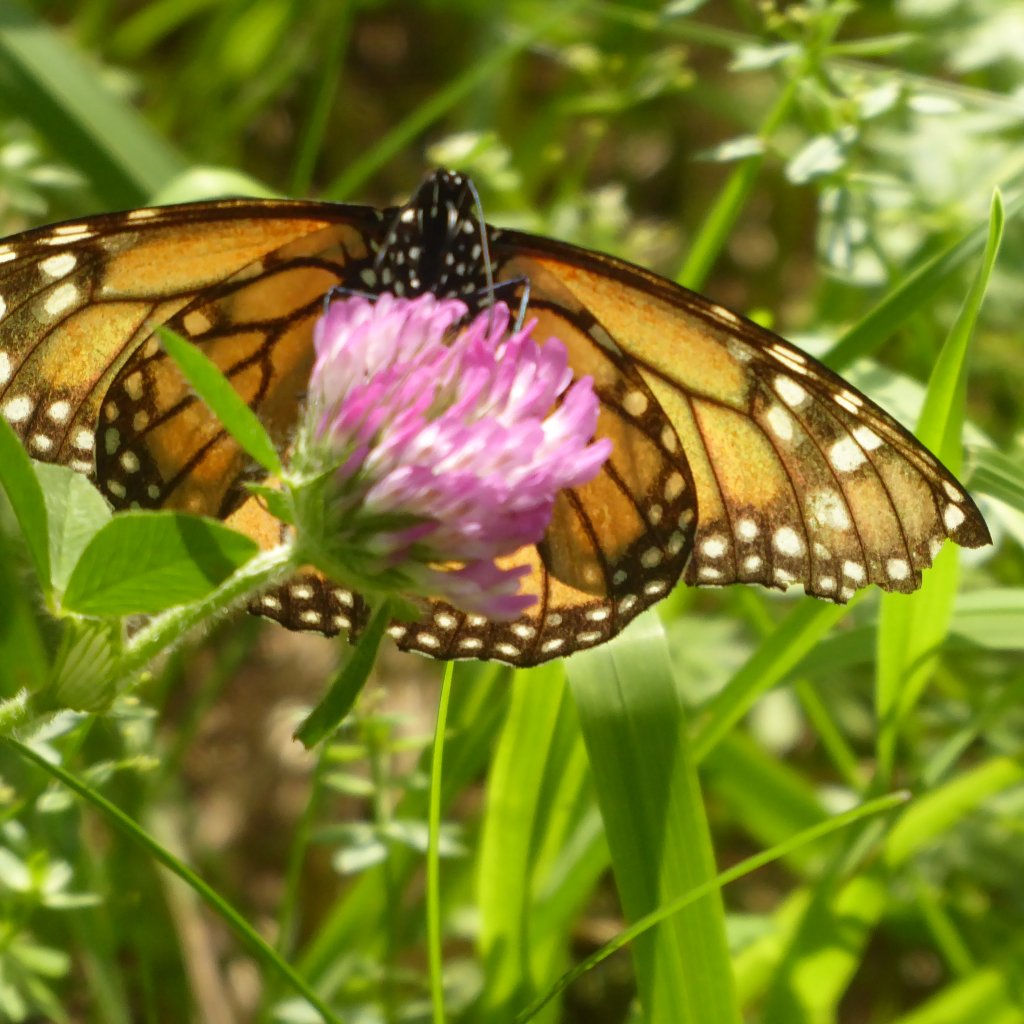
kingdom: Animalia
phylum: Arthropoda
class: Insecta
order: Lepidoptera
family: Nymphalidae
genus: Danaus
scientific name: Danaus plexippus
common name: Monarch
